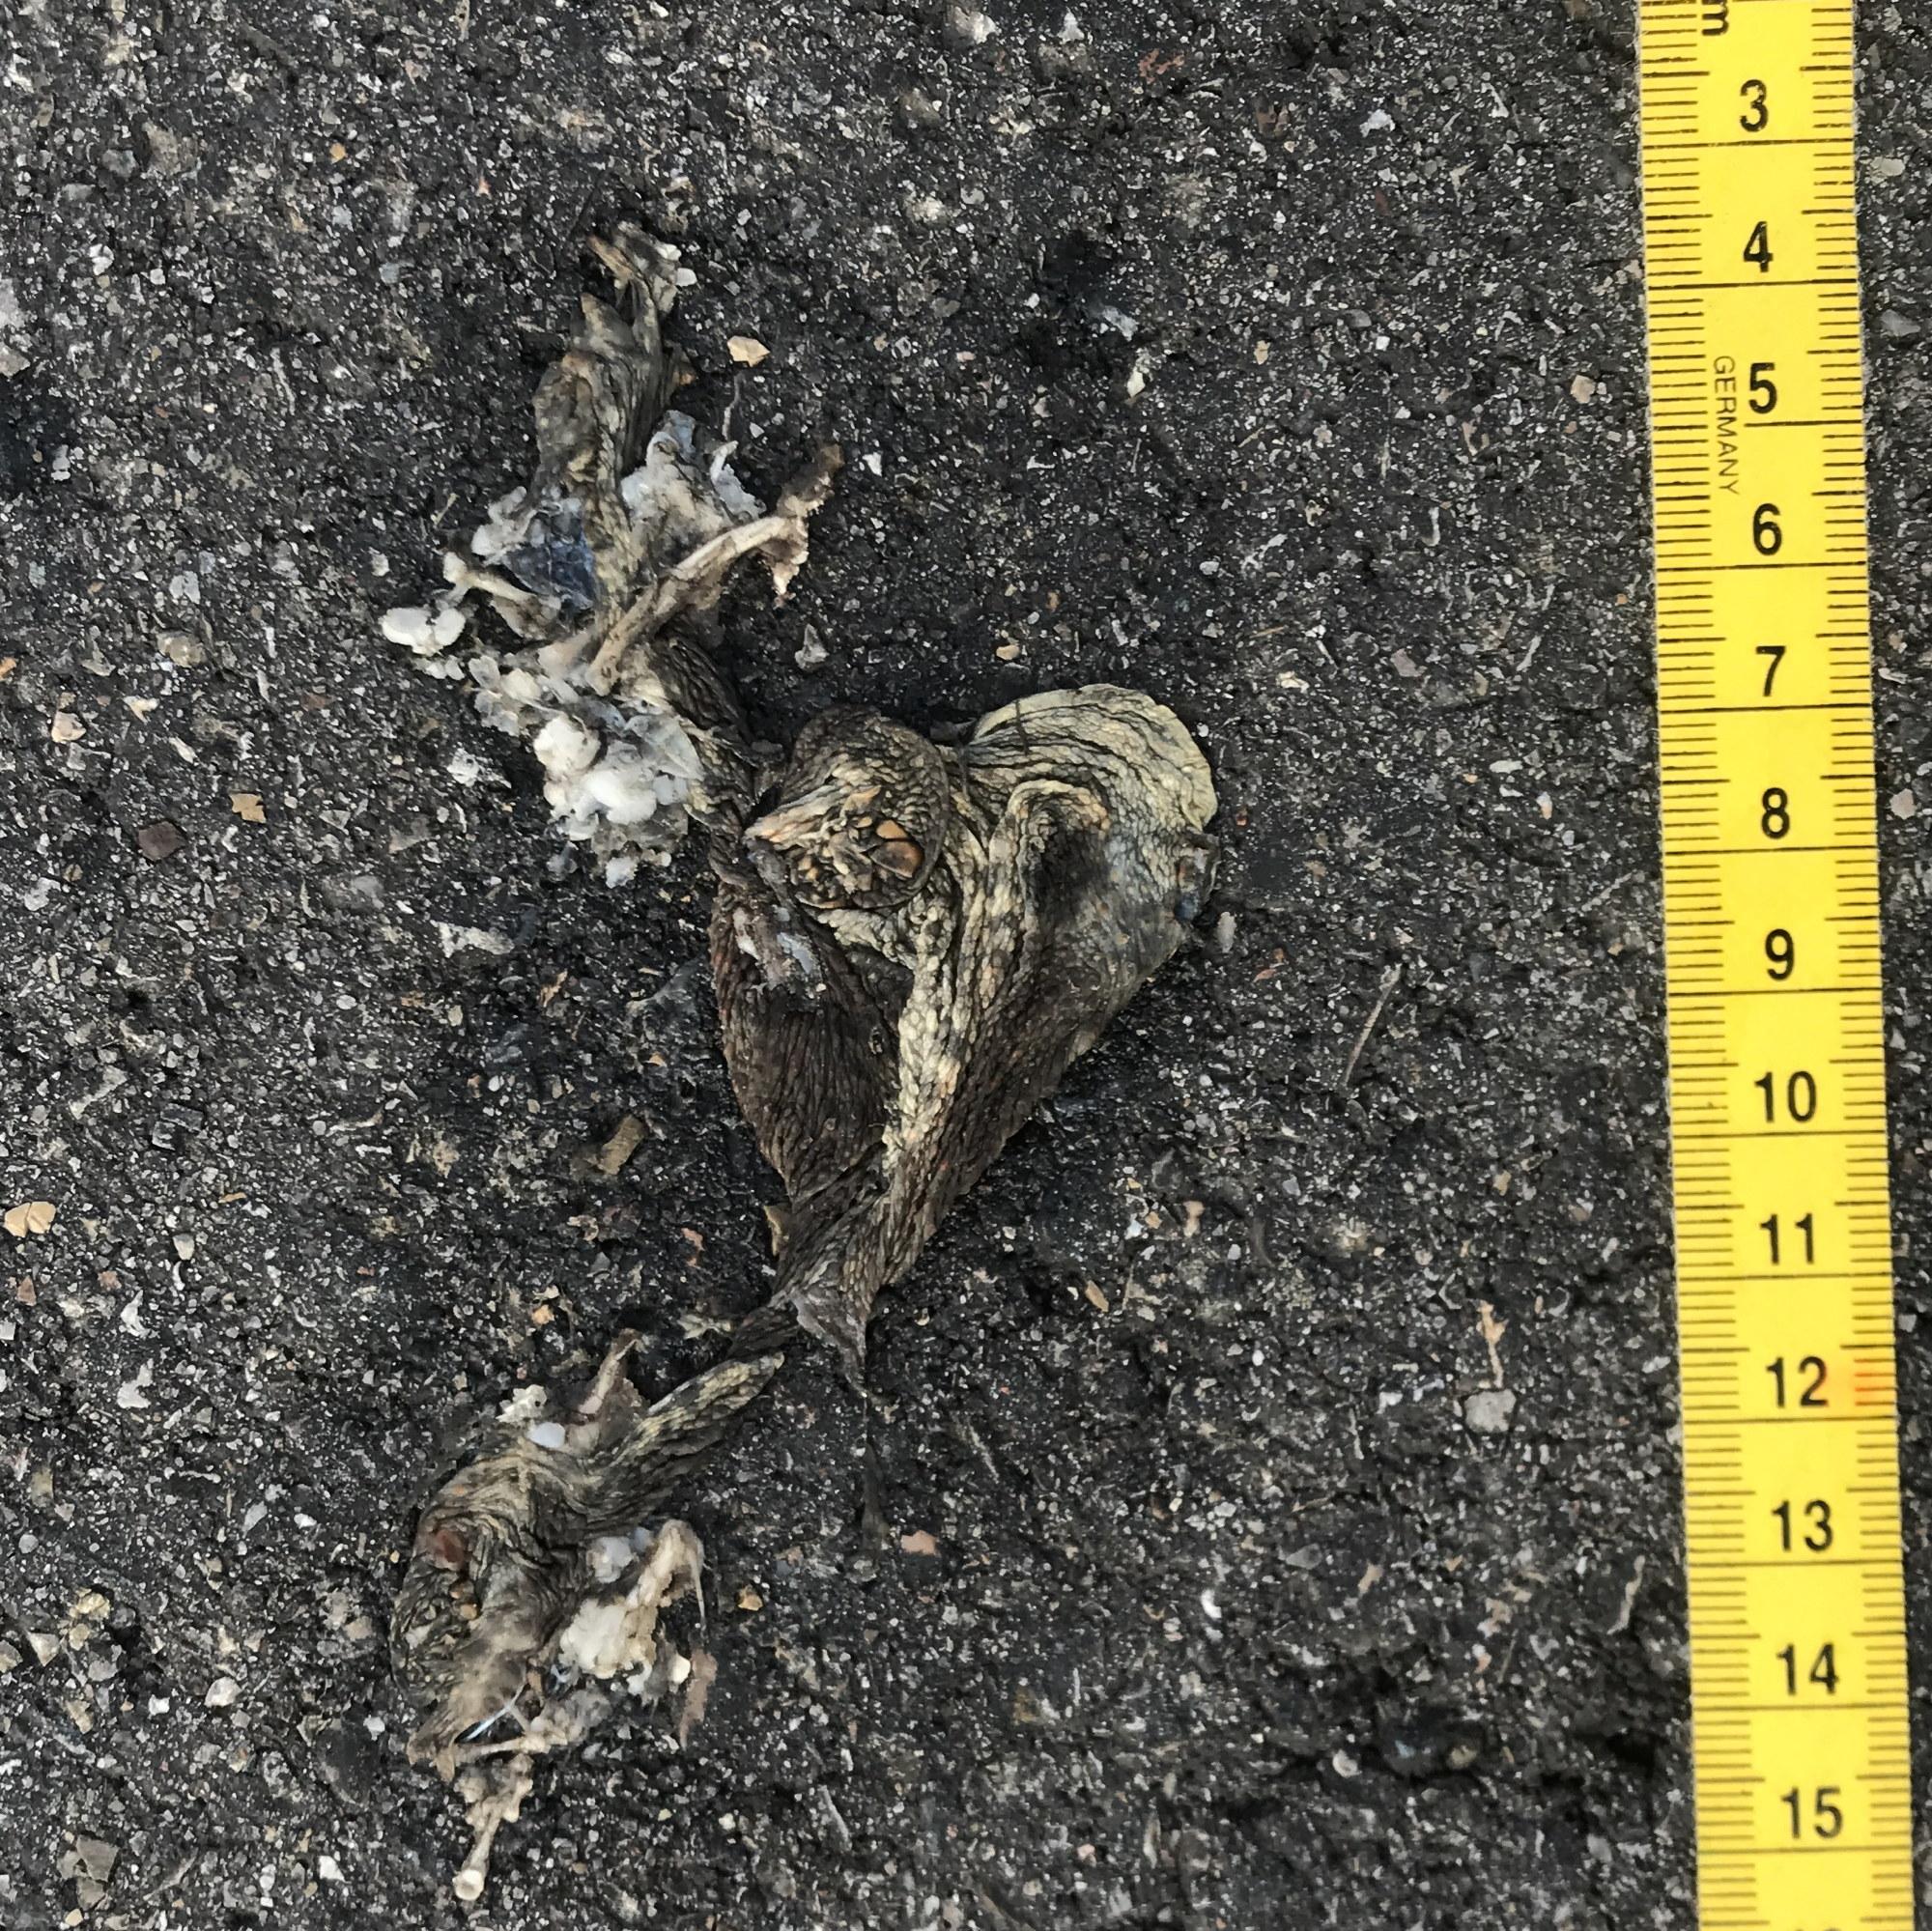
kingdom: Animalia
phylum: Chordata
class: Amphibia
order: Anura
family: Bufonidae
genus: Bufo
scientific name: Bufo bufo
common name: Common toad
